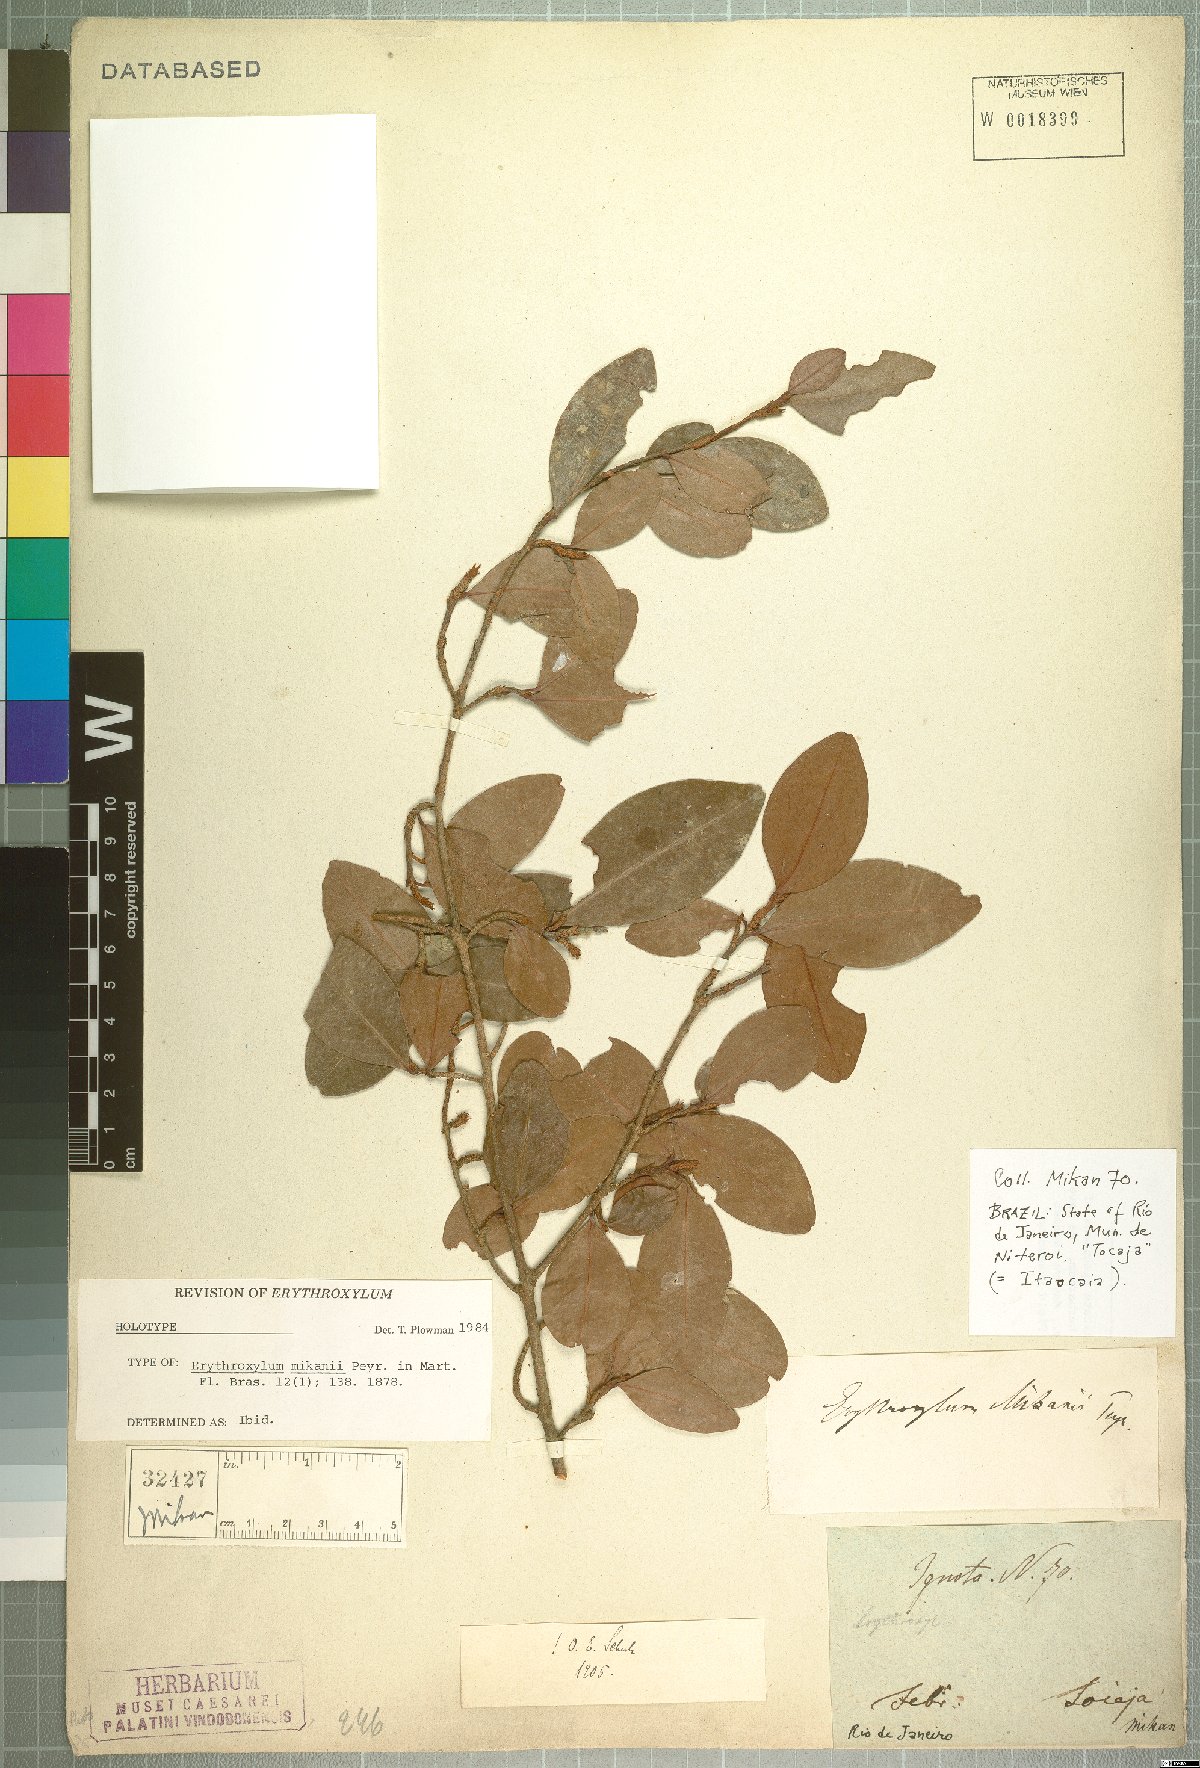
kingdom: Plantae
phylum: Tracheophyta
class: Magnoliopsida
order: Malpighiales
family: Erythroxylaceae
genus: Erythroxylum
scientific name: Erythroxylum mikanii
